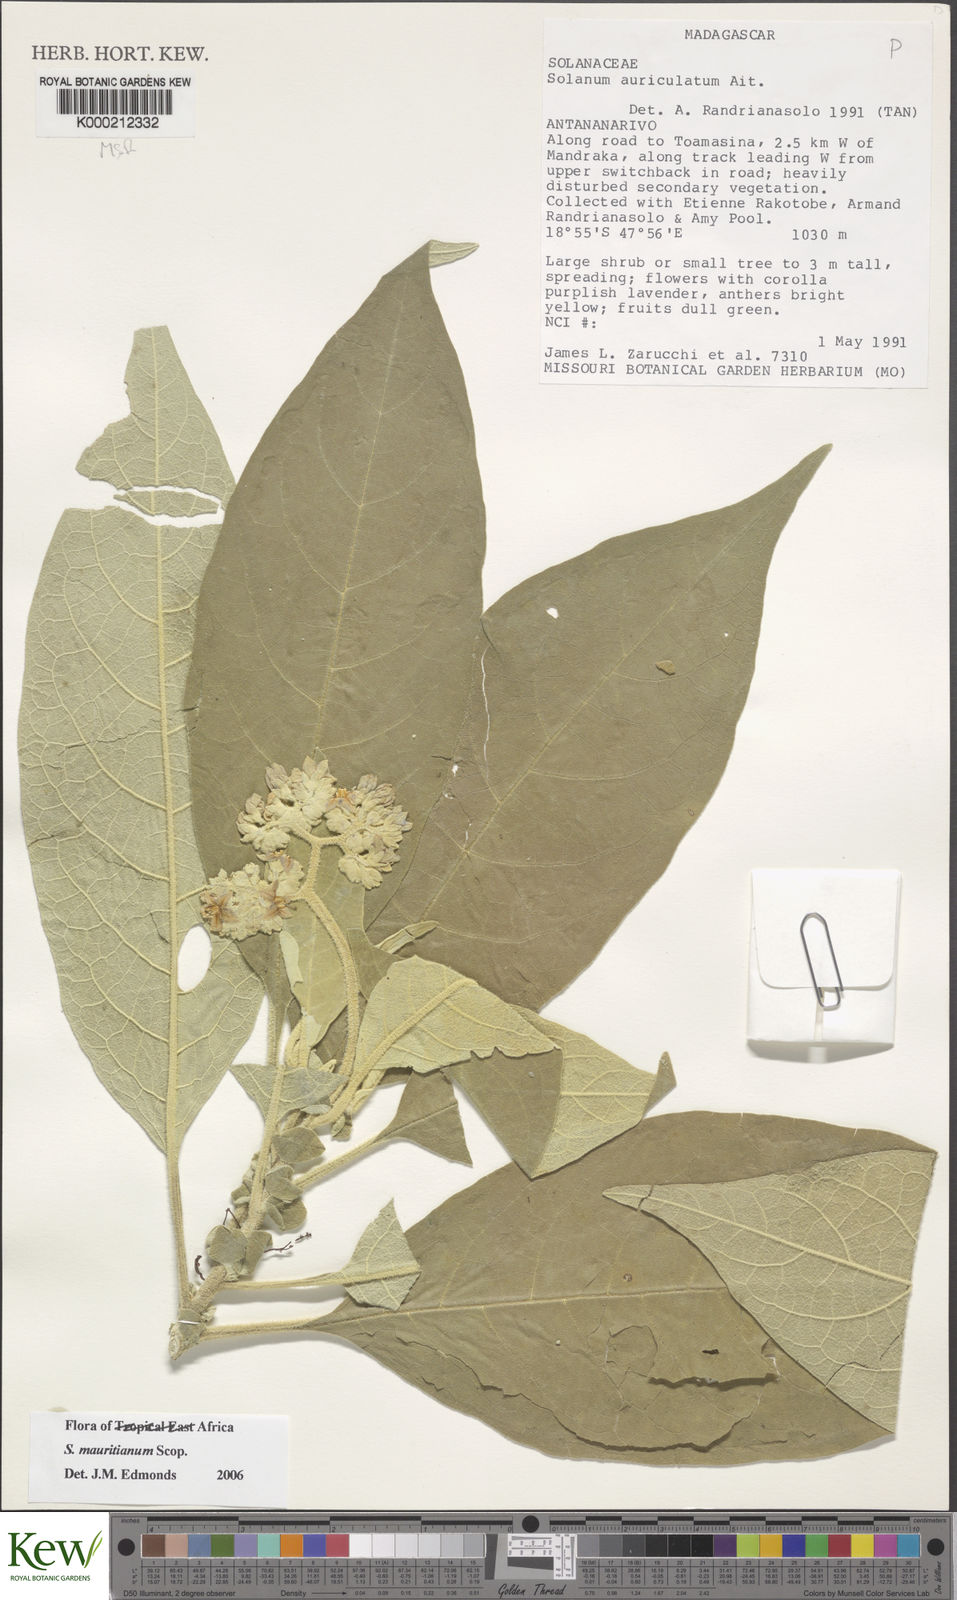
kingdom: Plantae
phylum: Tracheophyta
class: Magnoliopsida
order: Solanales
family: Solanaceae
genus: Solanum
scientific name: Solanum mauritianum
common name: Earleaf nightshade
